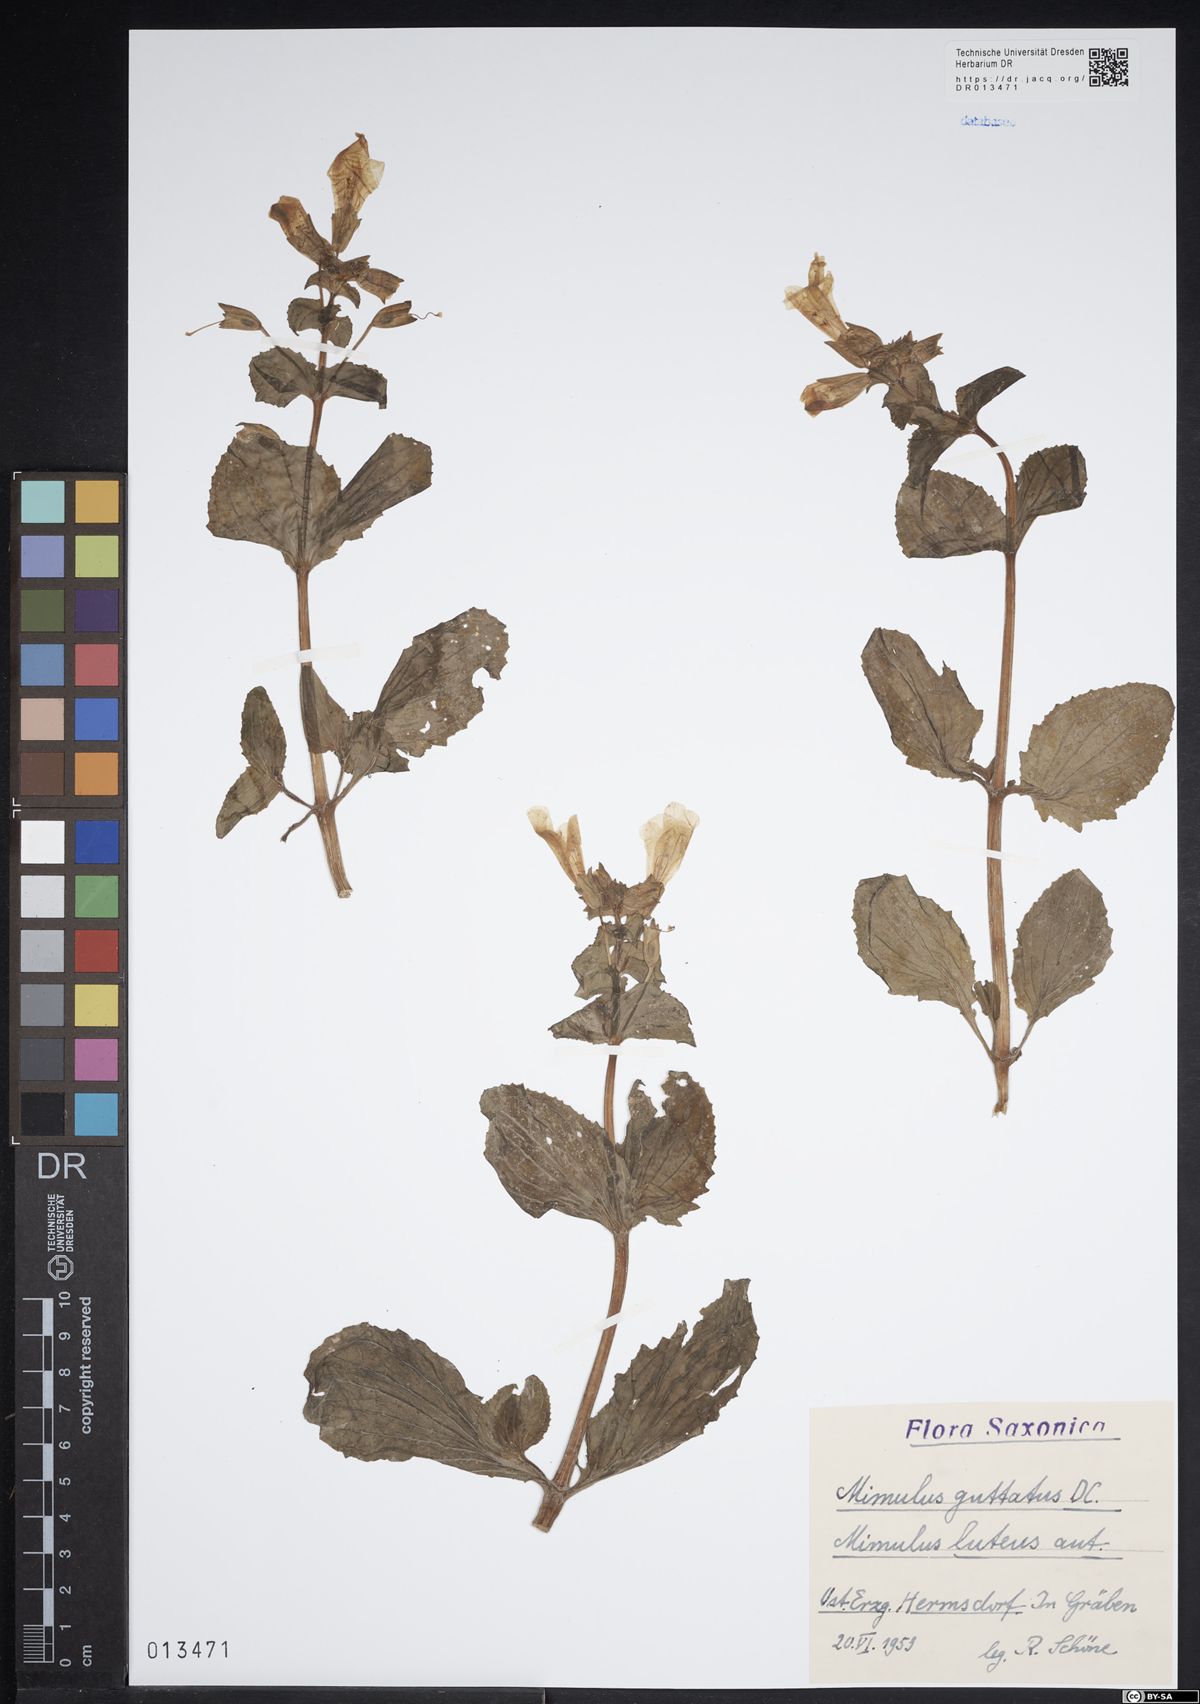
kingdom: Plantae
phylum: Tracheophyta
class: Magnoliopsida
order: Lamiales
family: Phrymaceae
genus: Erythranthe
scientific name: Erythranthe guttata
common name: Monkeyflower
